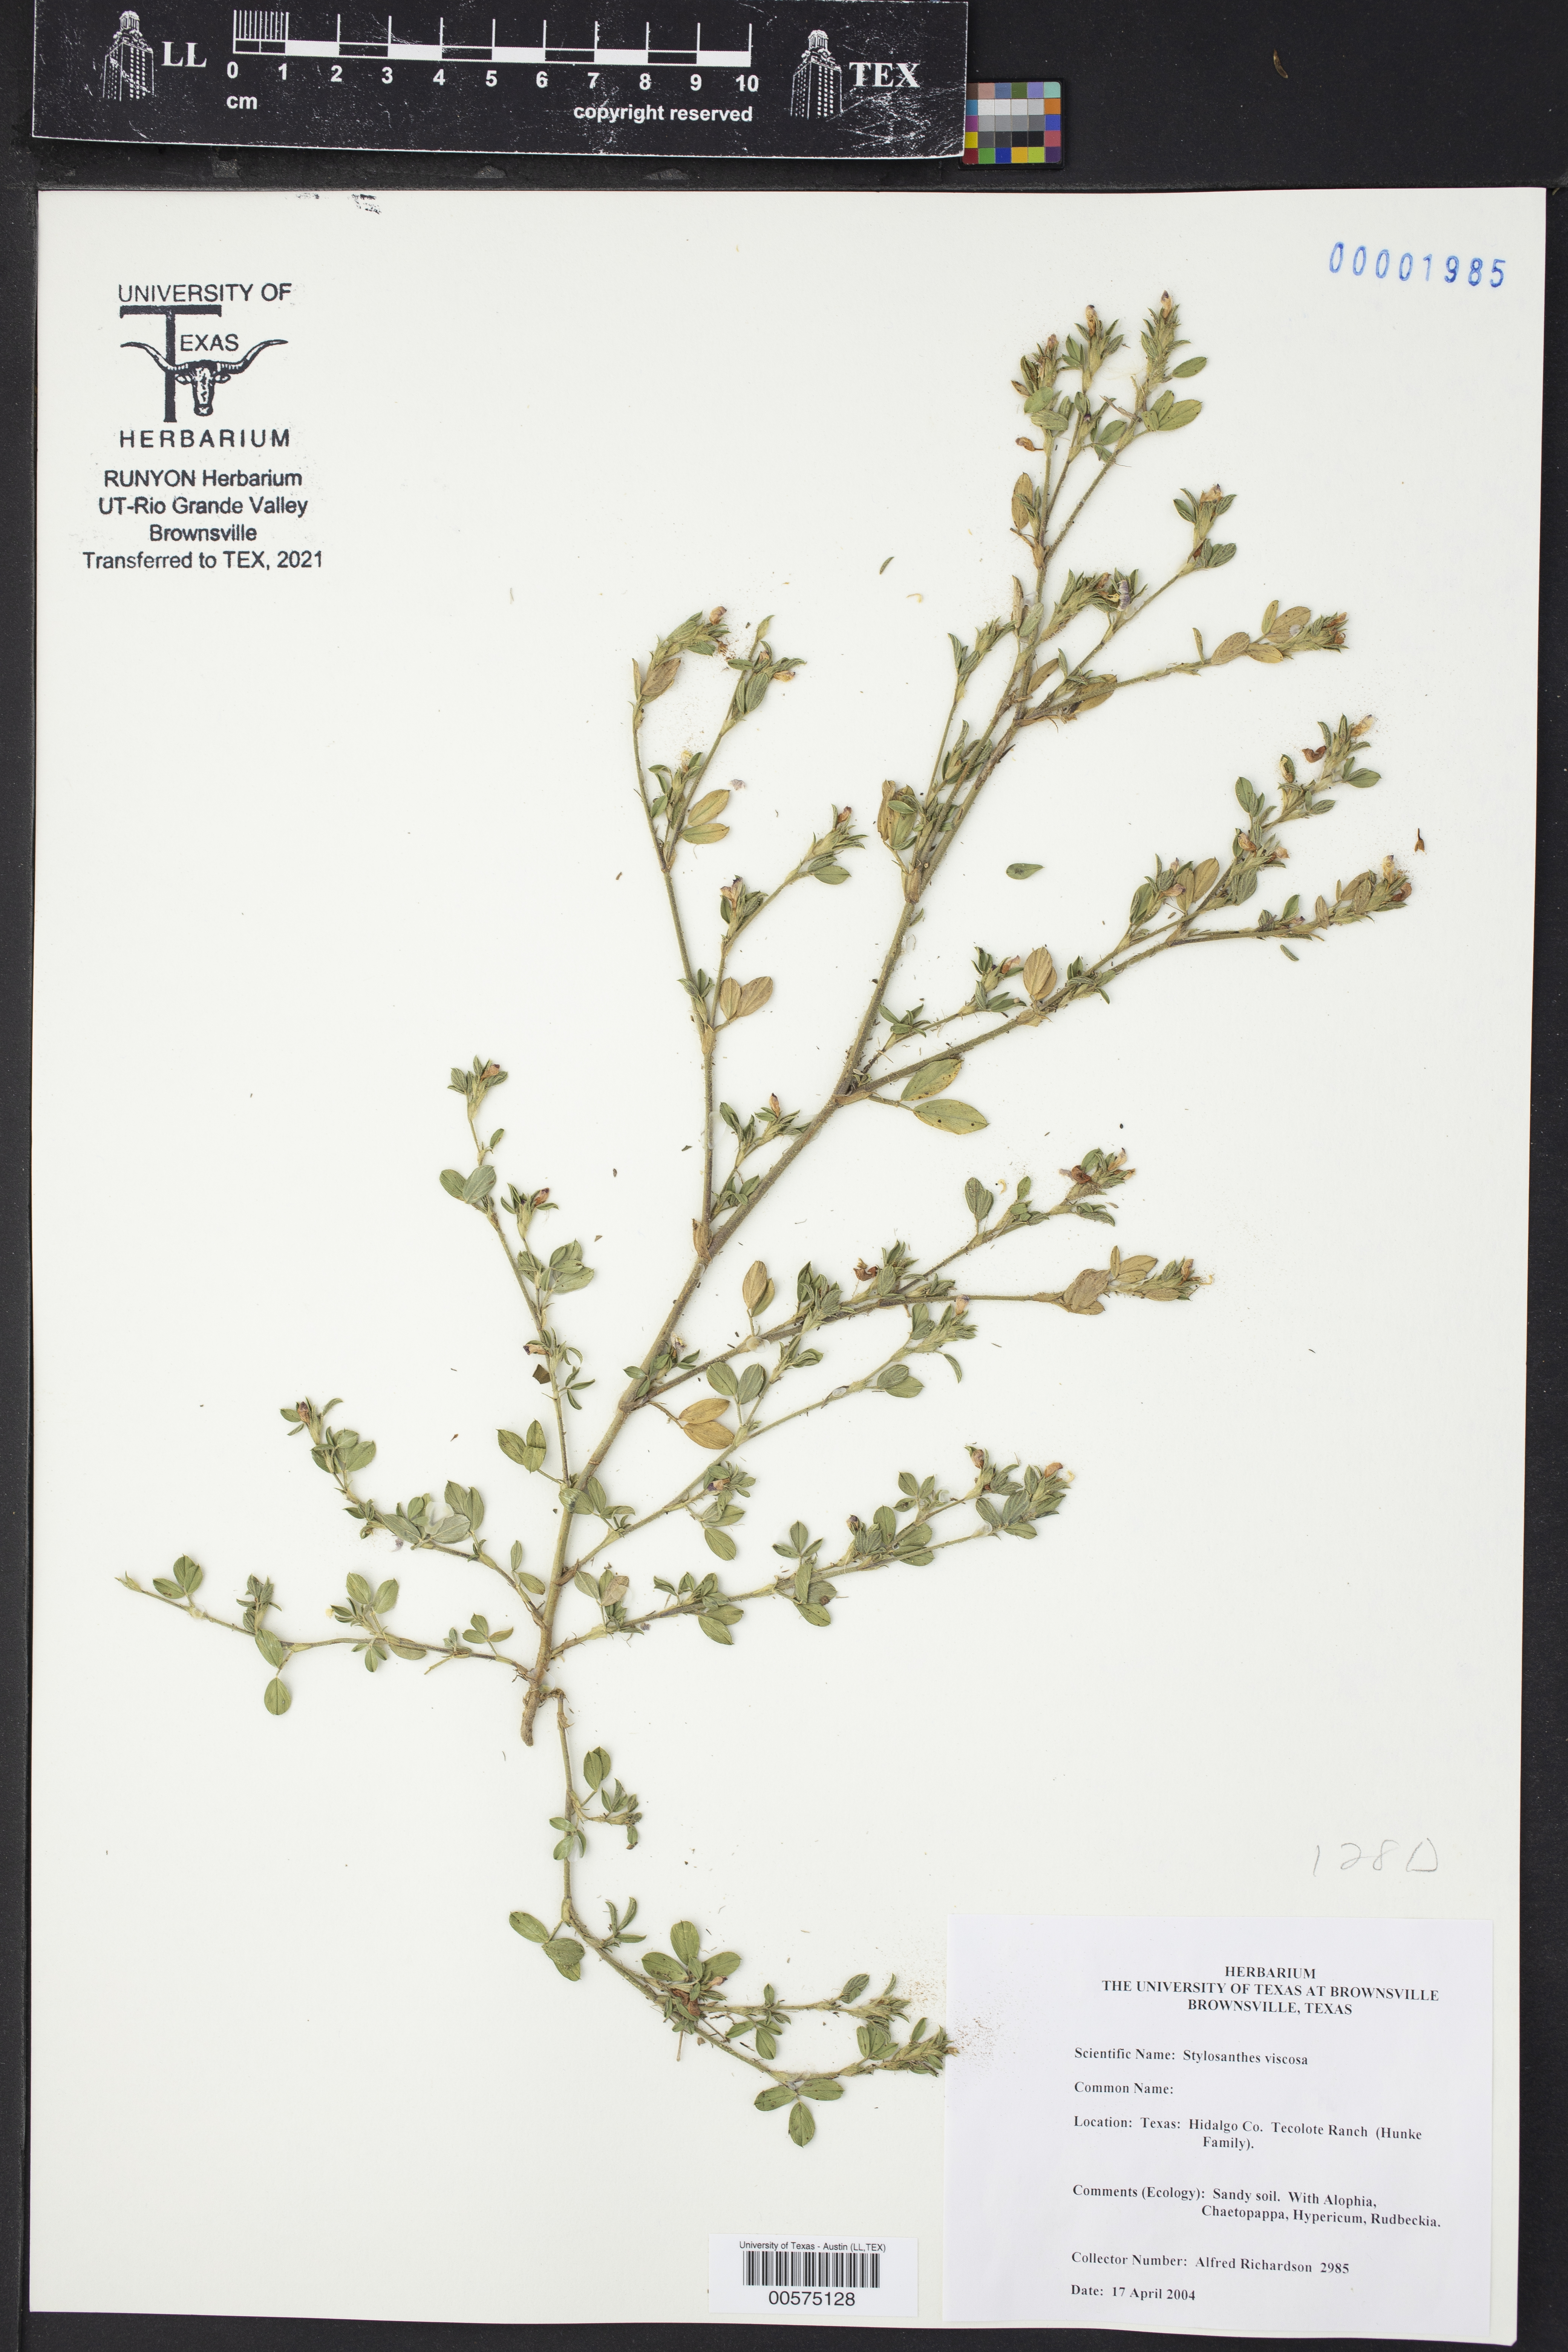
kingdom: Plantae
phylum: Tracheophyta
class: Magnoliopsida
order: Fabales
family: Fabaceae
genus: Stylosanthes
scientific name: Stylosanthes viscosa
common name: Viscid pencil-flower
